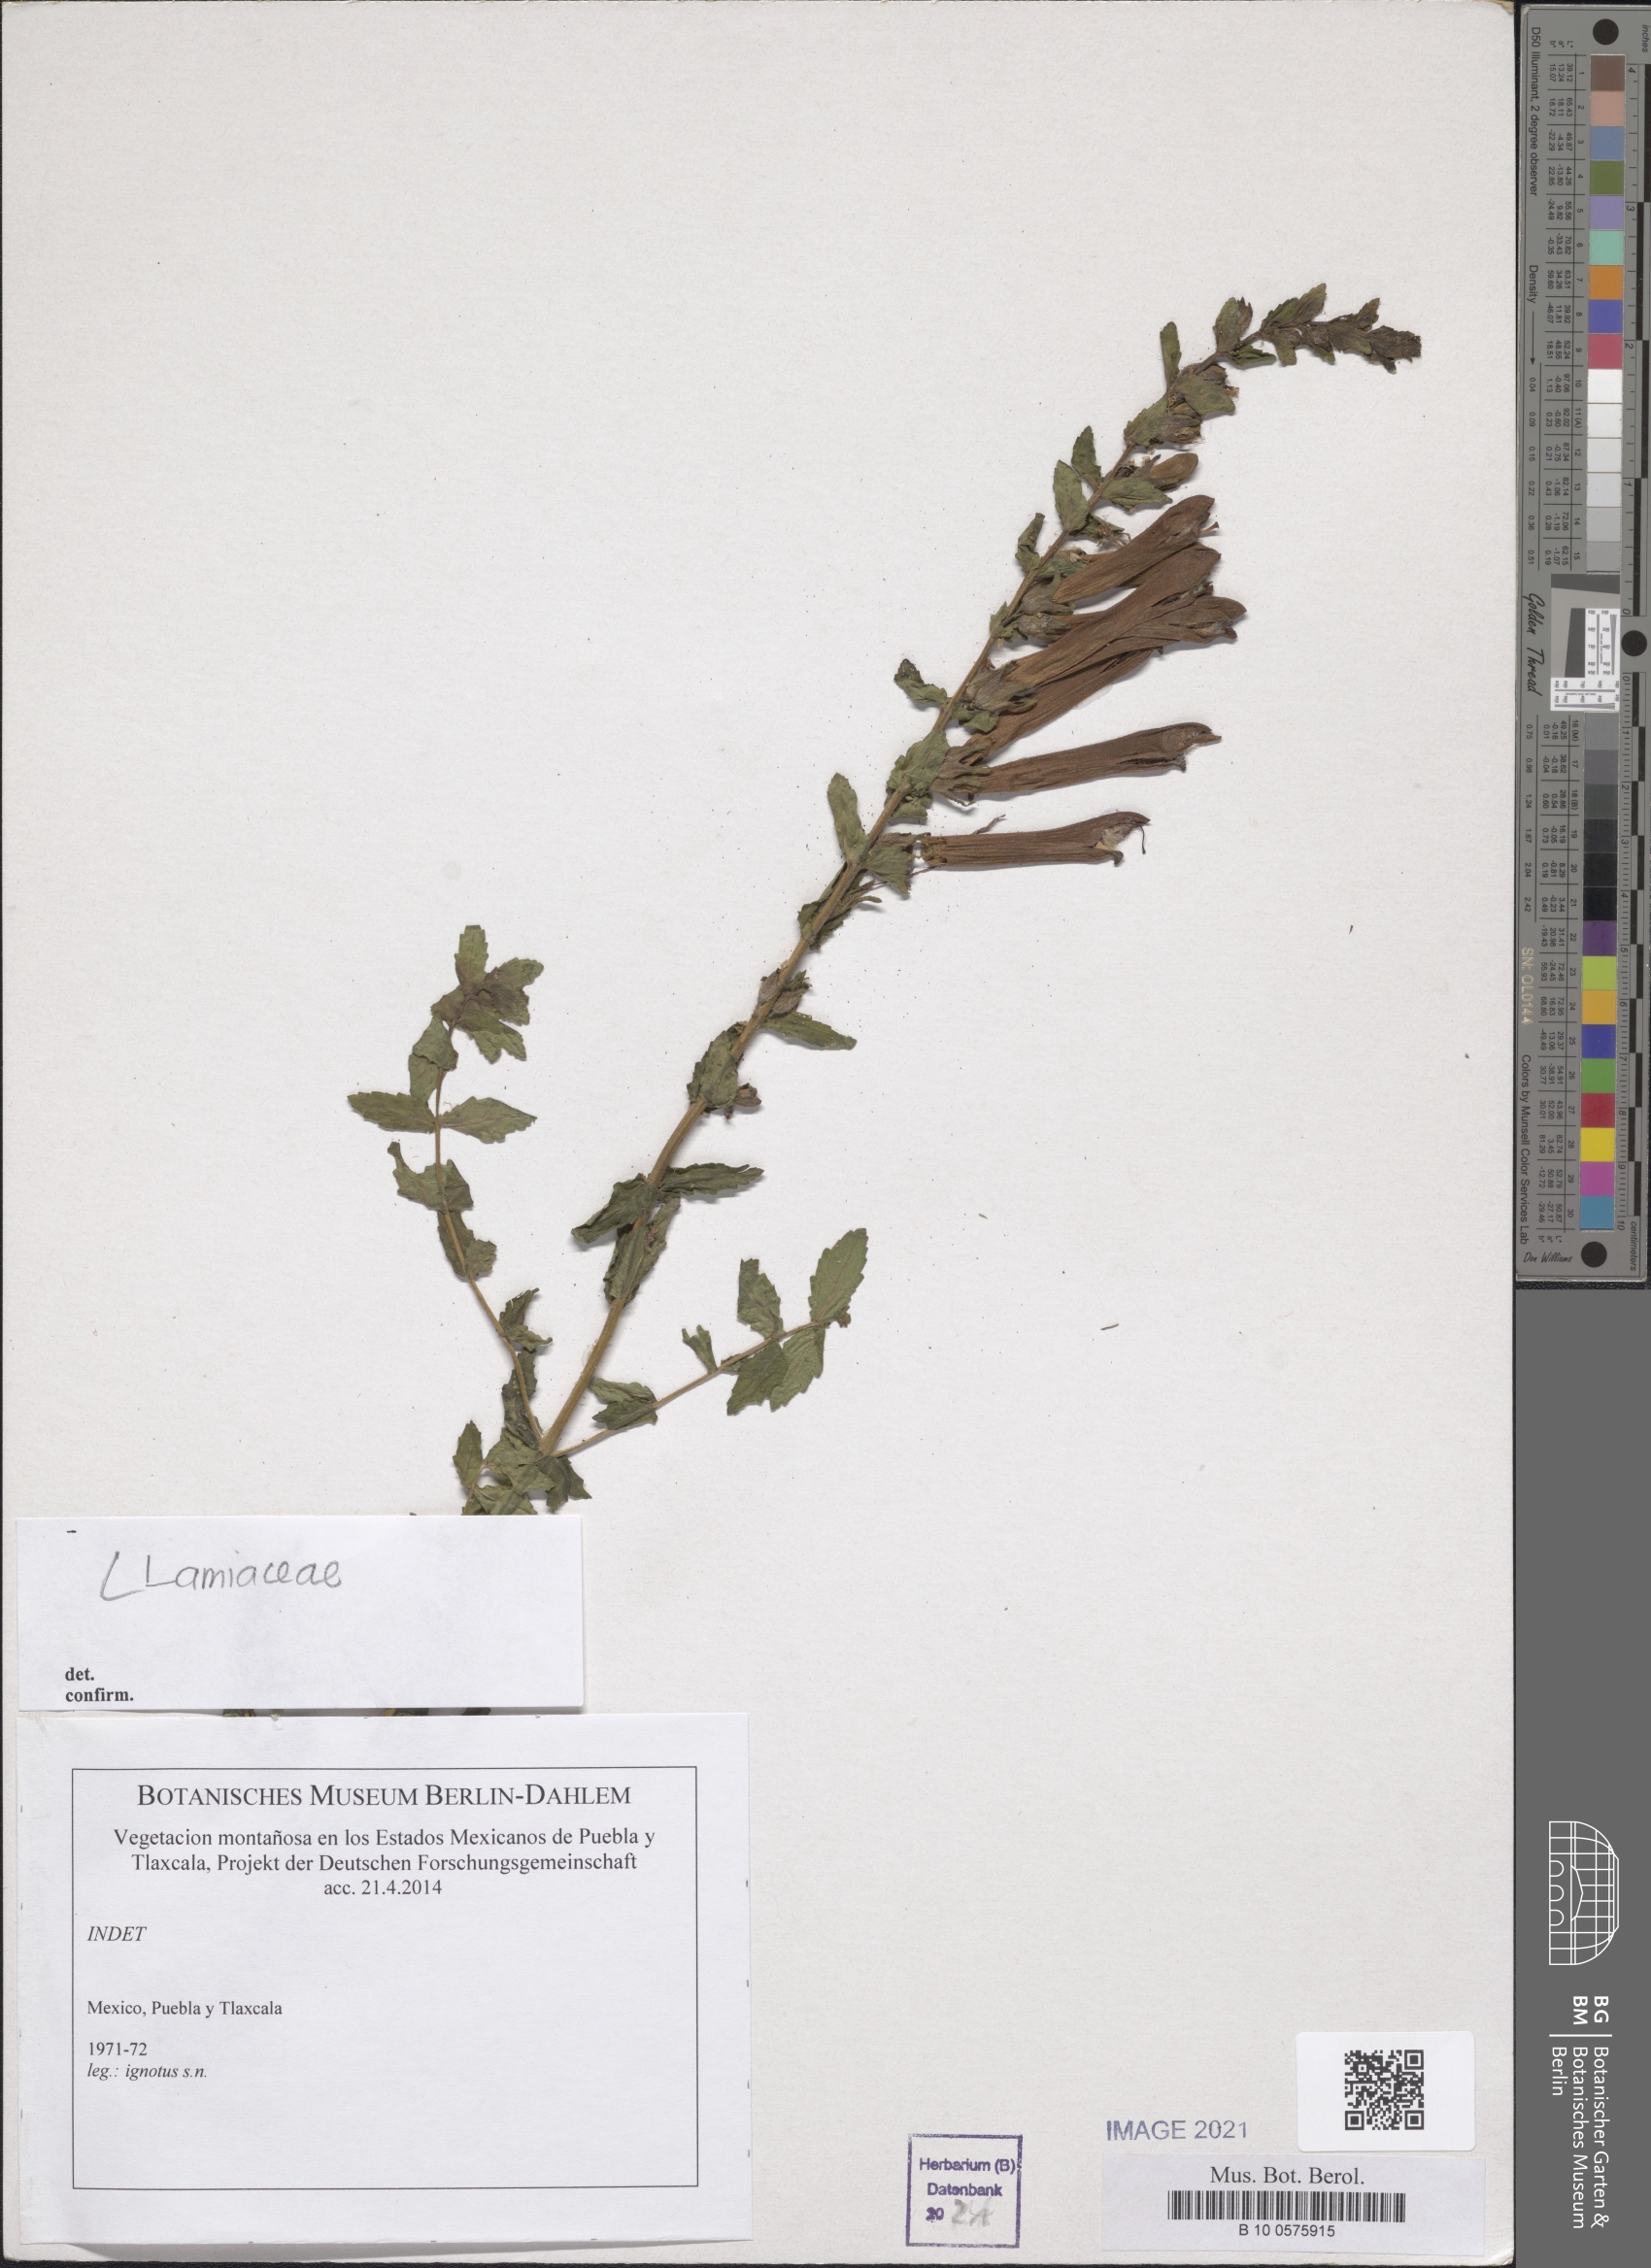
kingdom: Plantae
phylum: Tracheophyta
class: Magnoliopsida
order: Lamiales
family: Orobanchaceae
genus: Lamourouxia
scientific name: Lamourouxia
